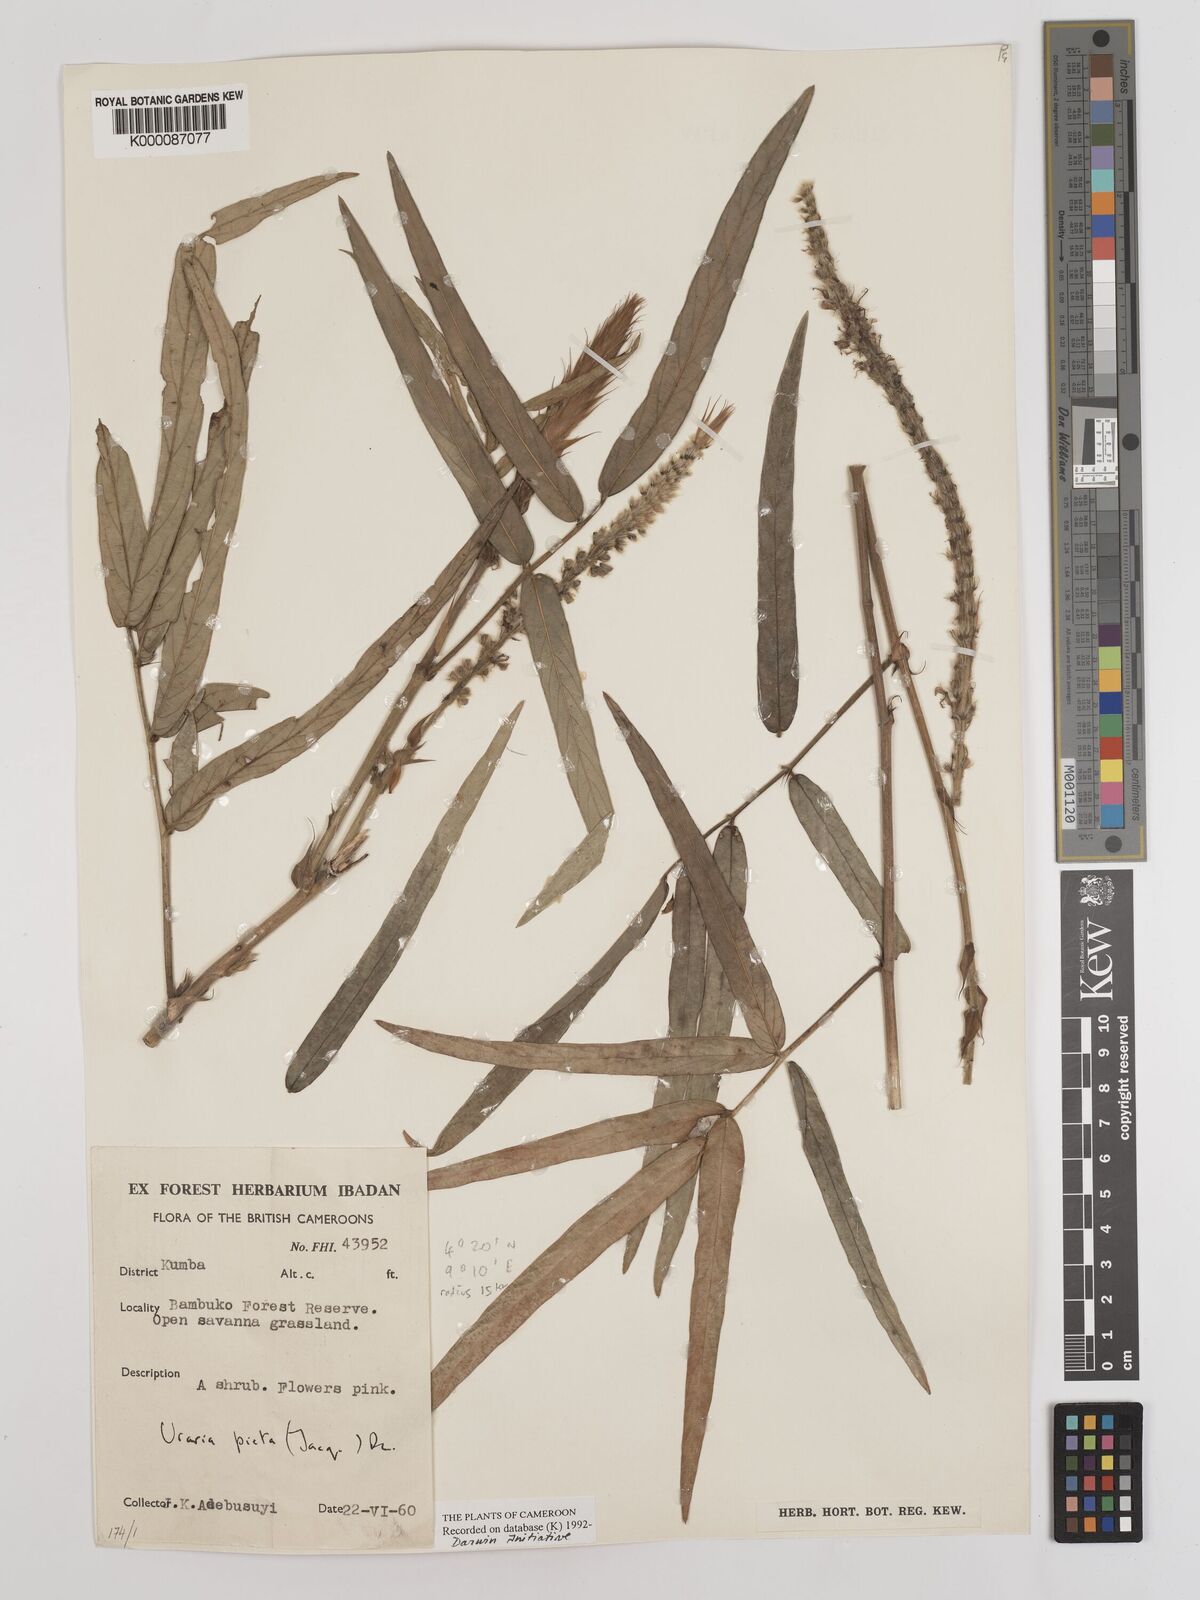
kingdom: Plantae
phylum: Tracheophyta
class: Magnoliopsida
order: Fabales
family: Fabaceae
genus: Uraria
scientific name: Uraria picta
